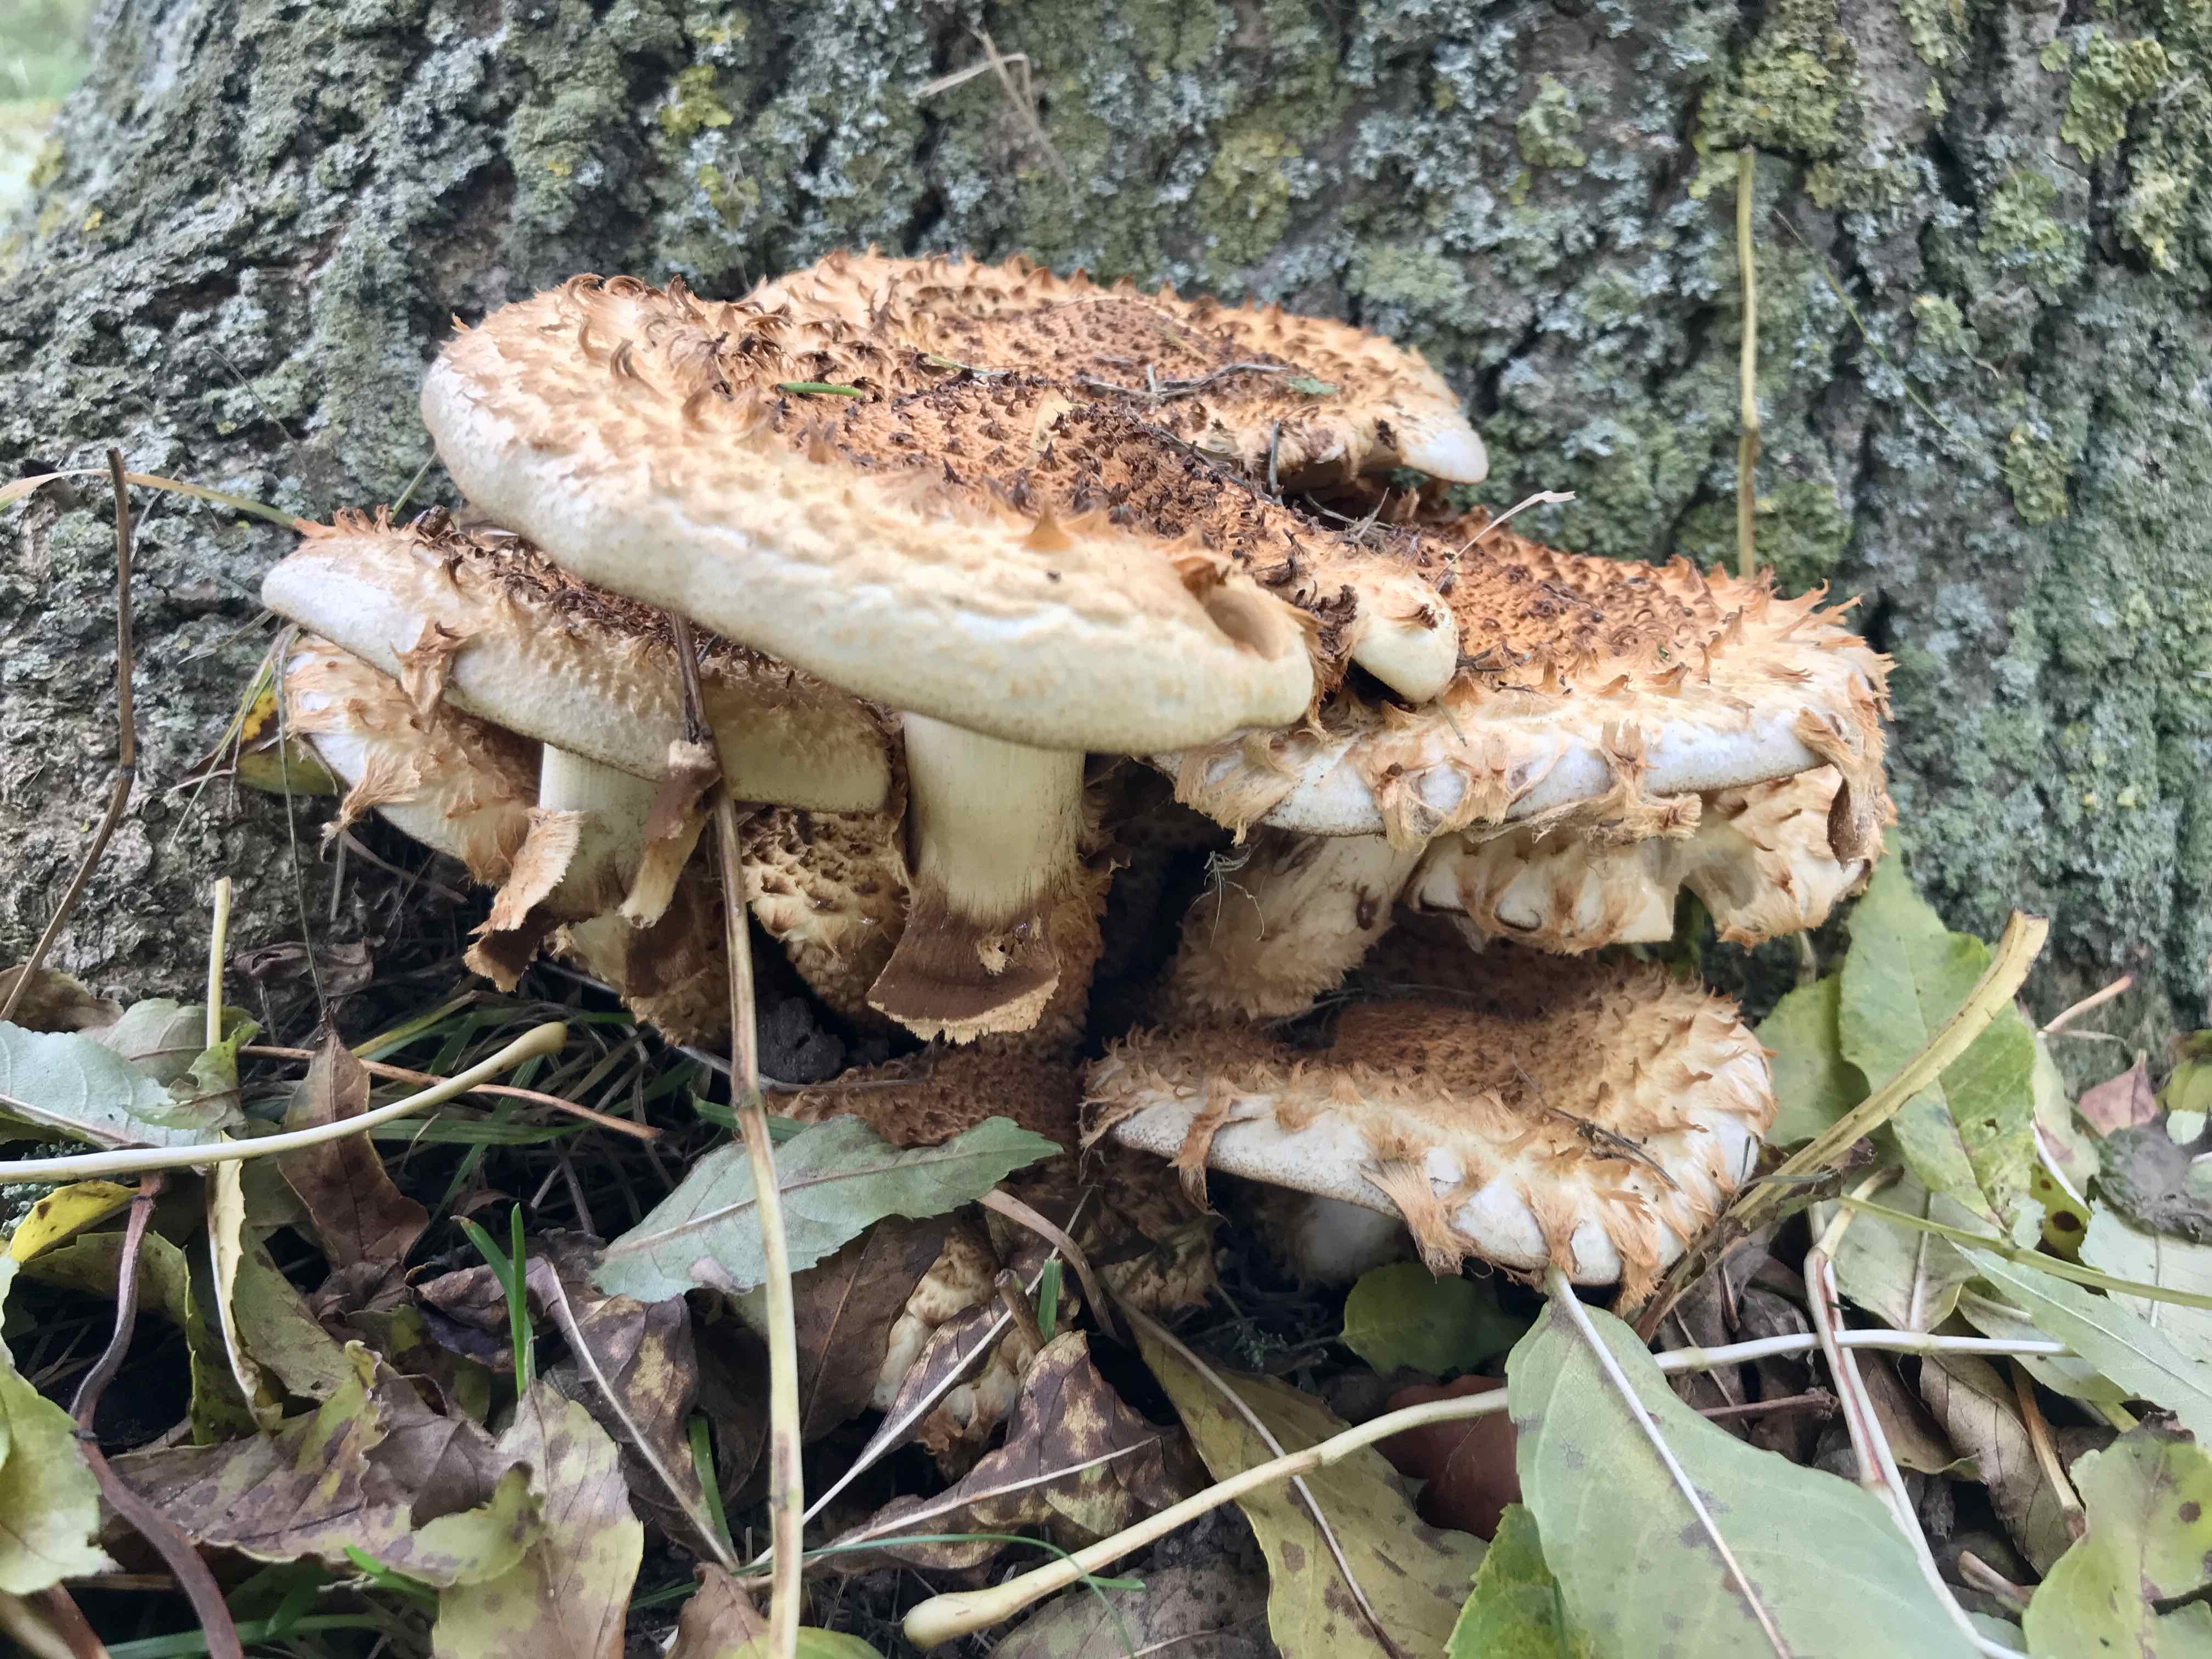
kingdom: Fungi
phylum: Basidiomycota
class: Agaricomycetes
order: Agaricales
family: Strophariaceae
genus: Pholiota
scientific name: Pholiota squarrosa
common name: krumskællet skælhat
